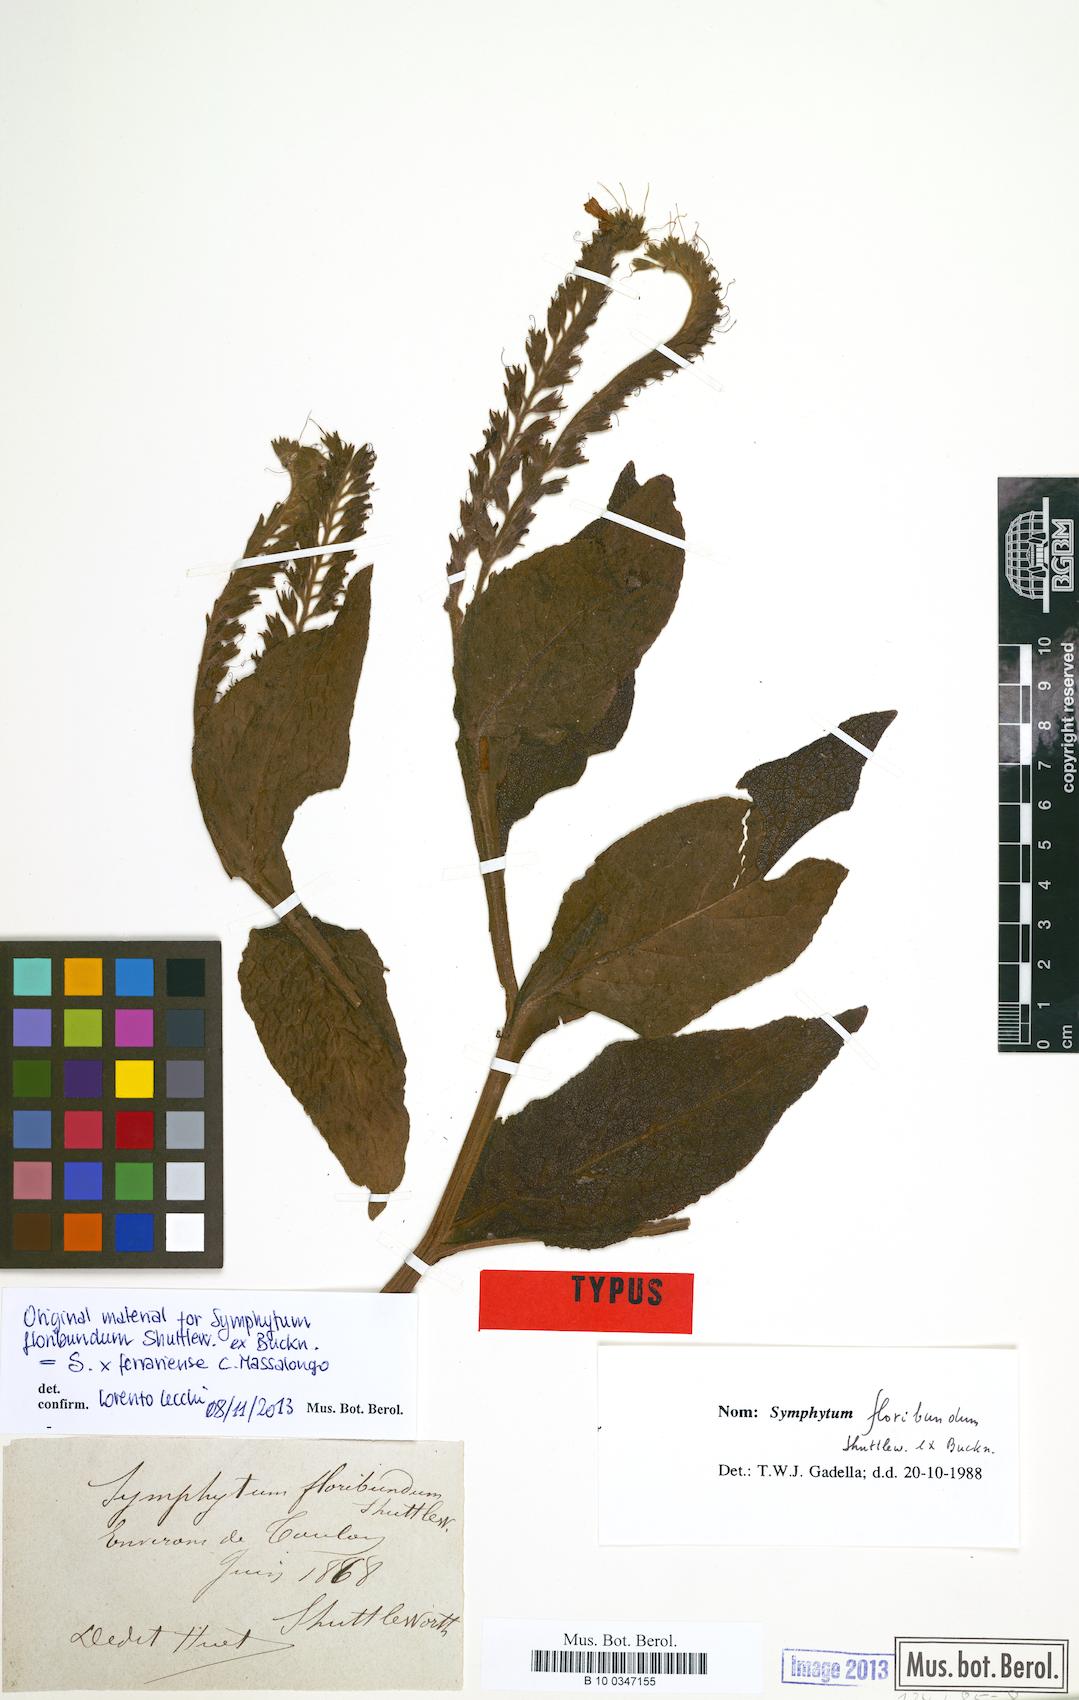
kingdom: Plantae
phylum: Tracheophyta
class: Magnoliopsida
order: Boraginales
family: Boraginaceae
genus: Symphytum
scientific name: Symphytum ferrariense
